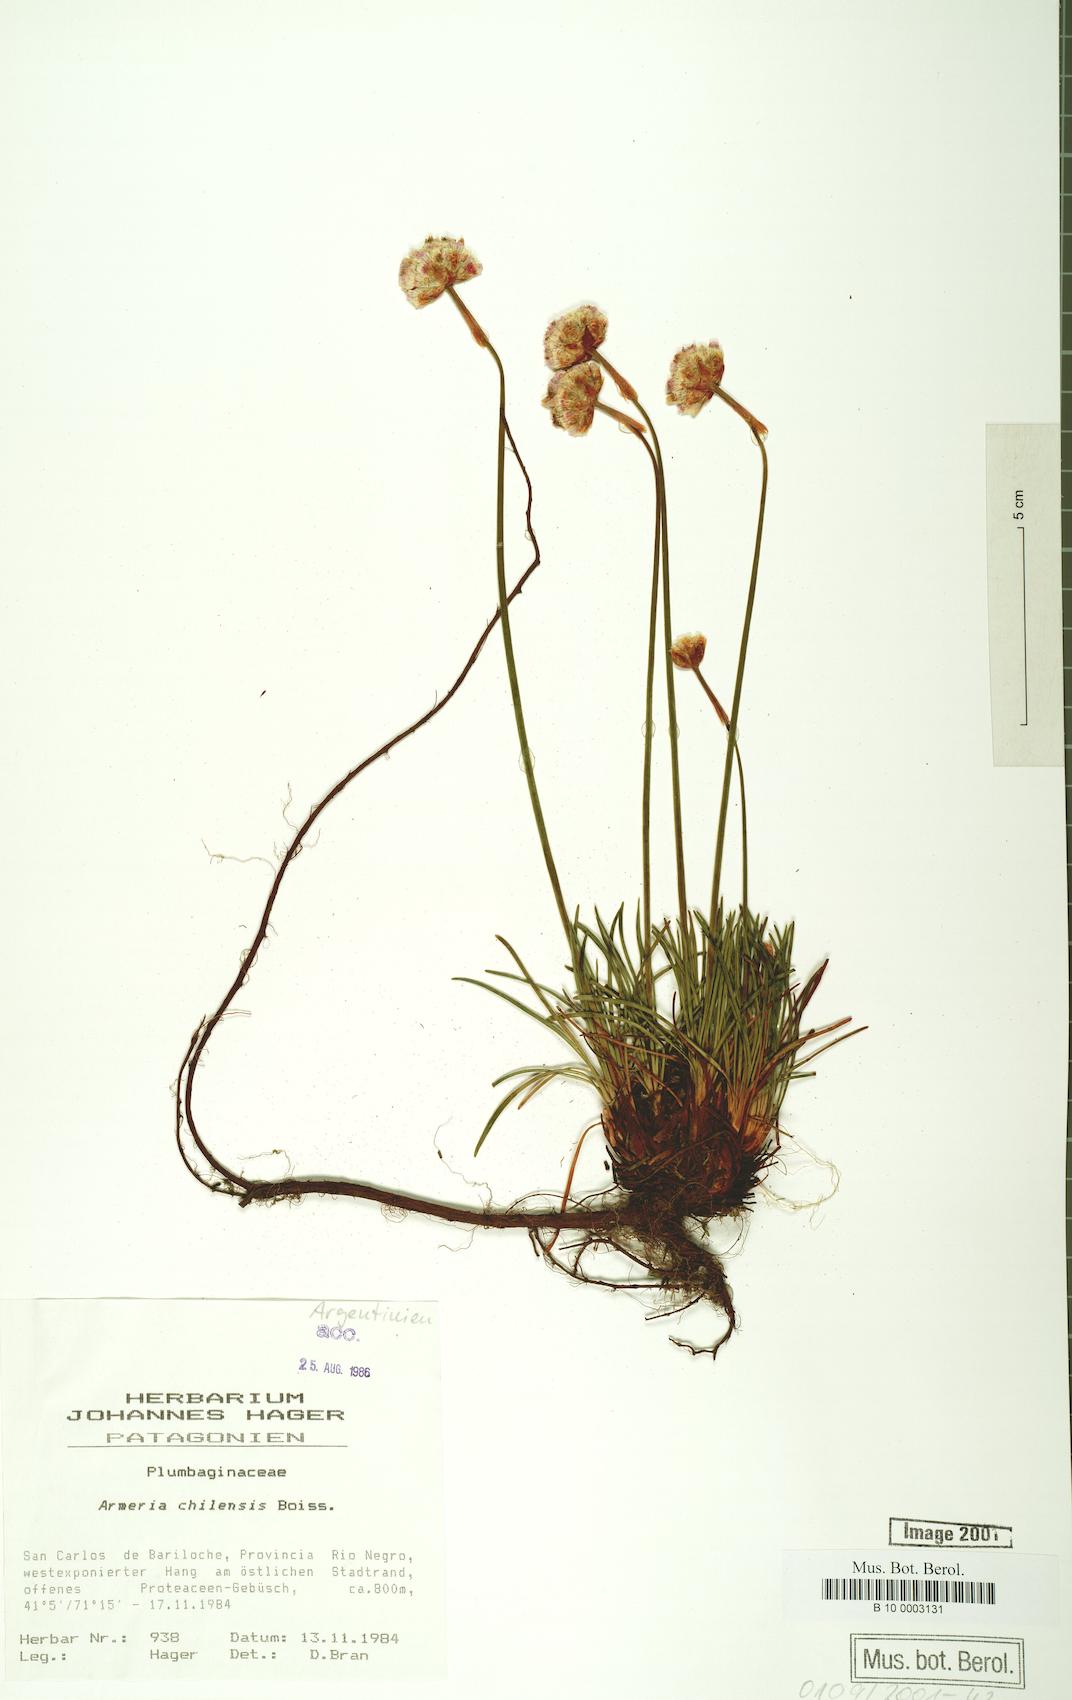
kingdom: Plantae
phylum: Tracheophyta
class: Magnoliopsida
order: Caryophyllales
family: Plumbaginaceae
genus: Armeria
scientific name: Armeria curvifolia
